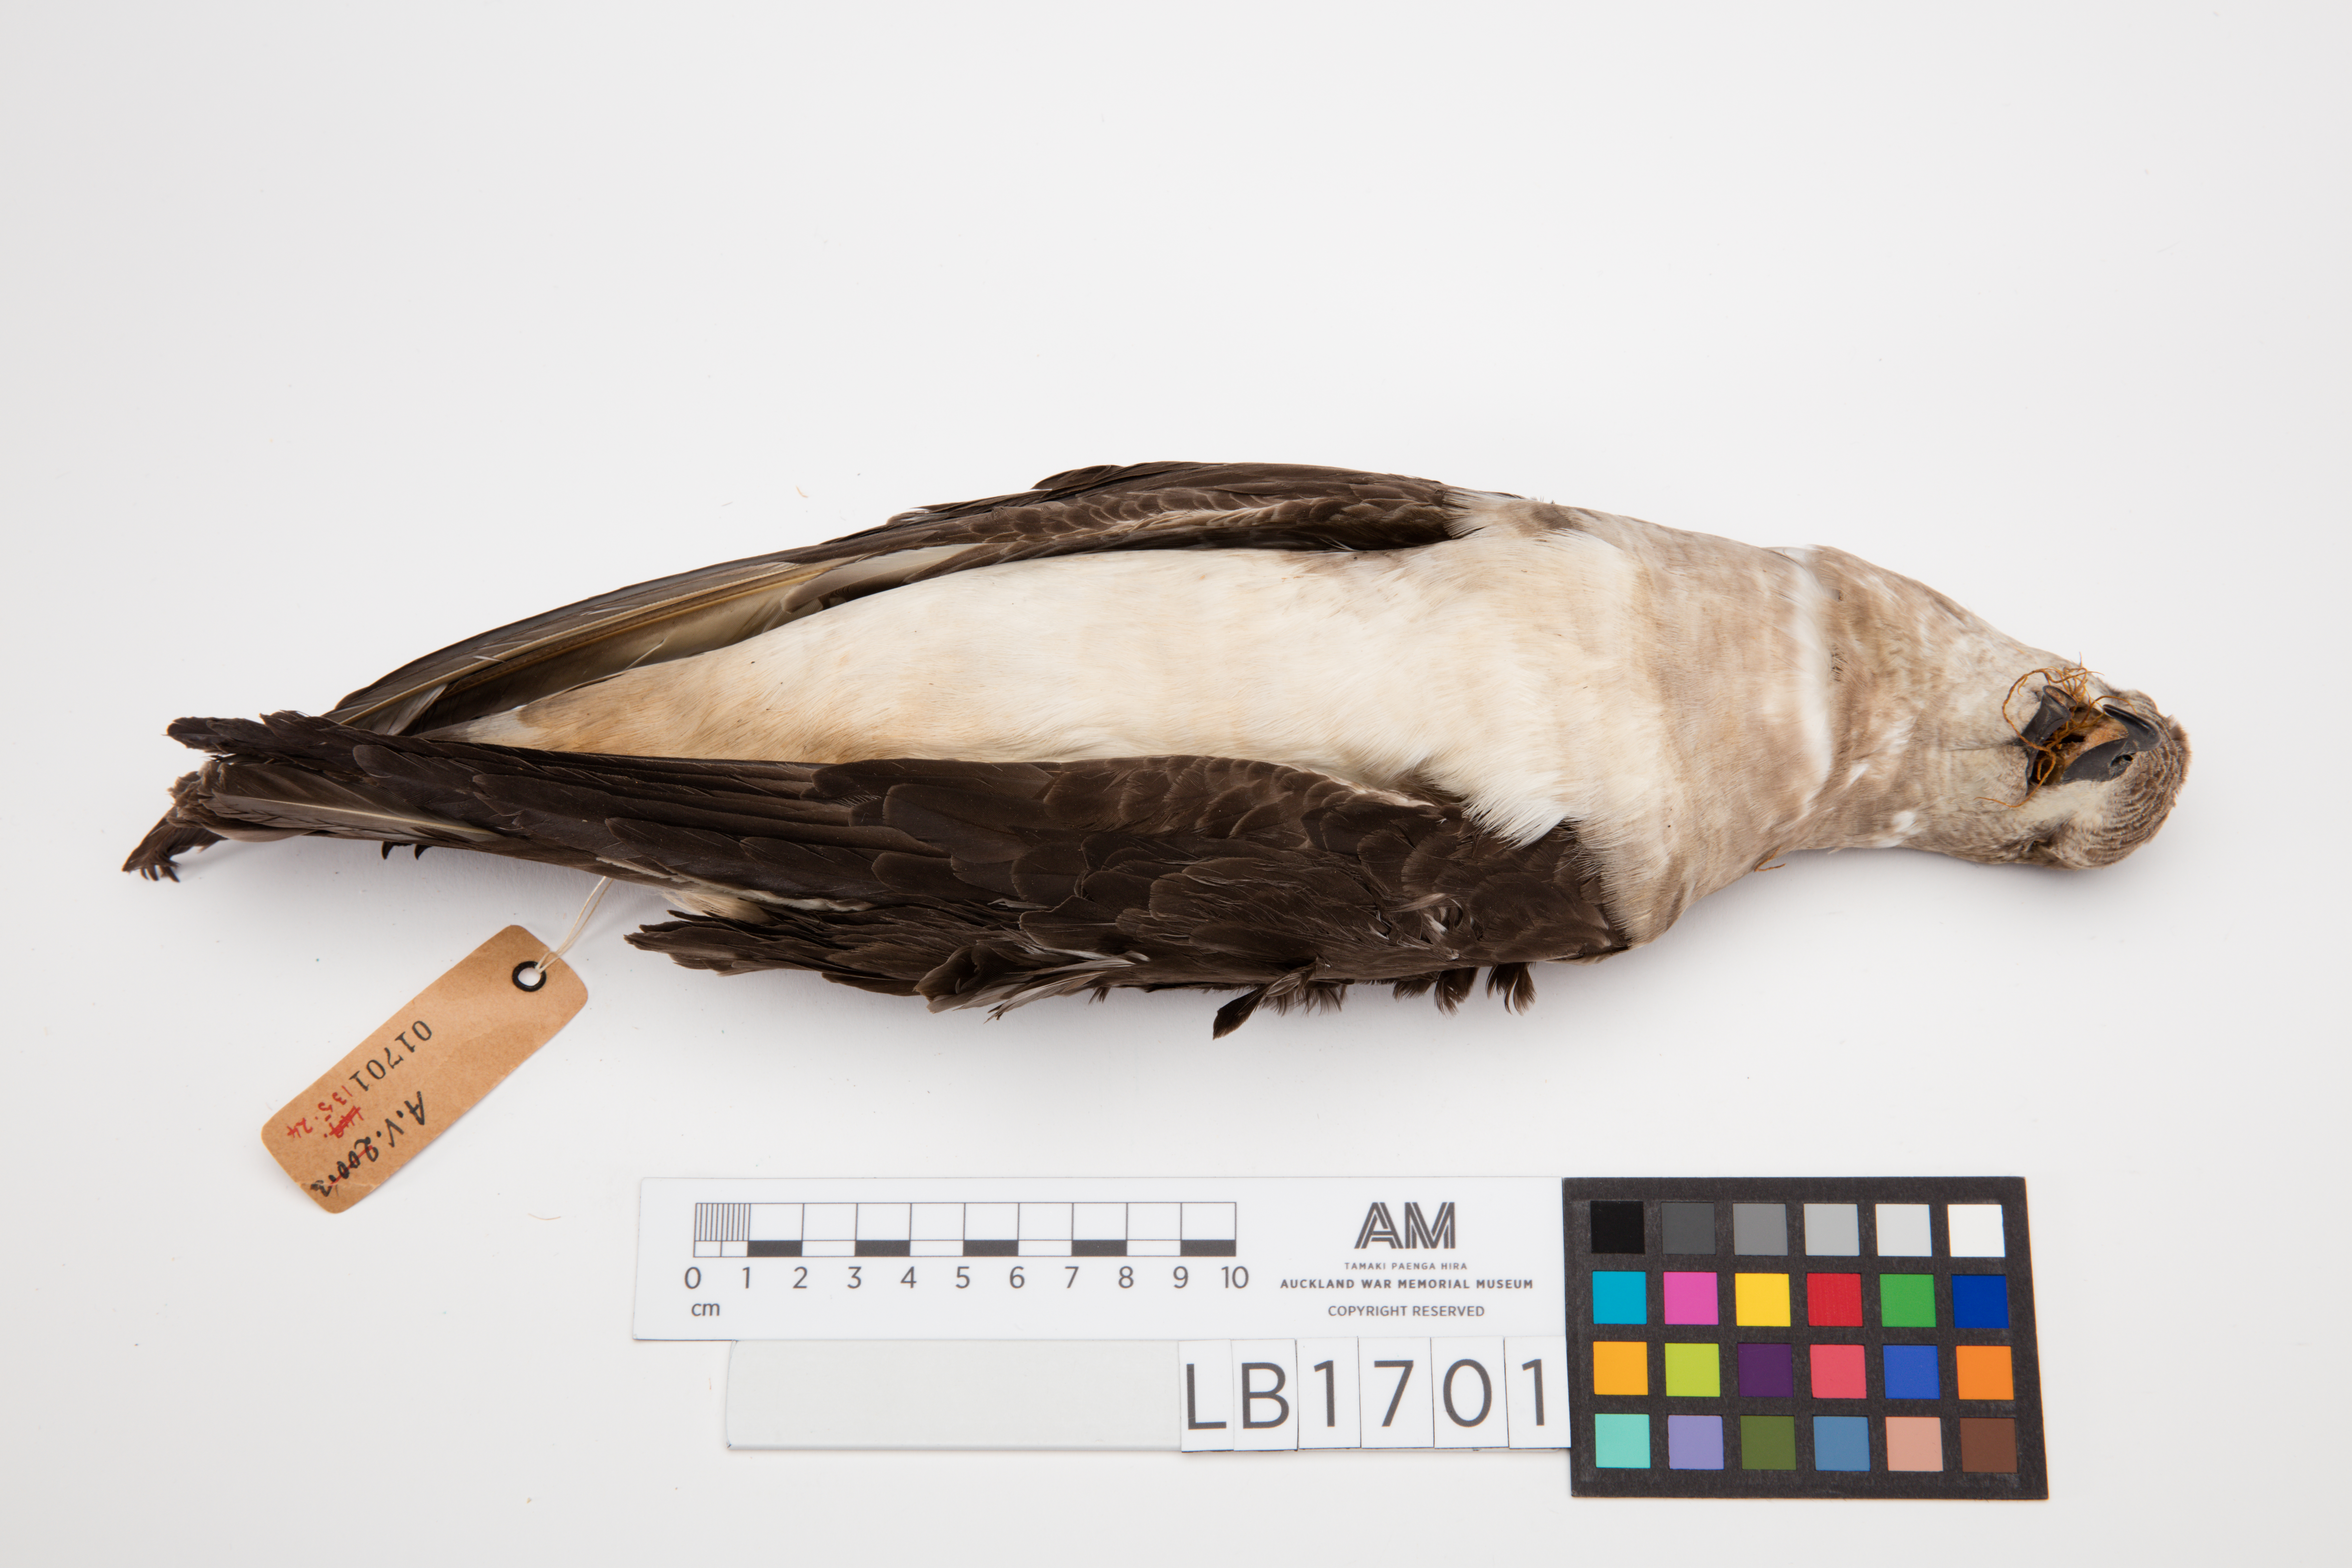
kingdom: Animalia
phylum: Chordata
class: Aves
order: Procellariiformes
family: Procellariidae
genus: Pterodroma
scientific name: Pterodroma neglecta
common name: Kermadec petrel
